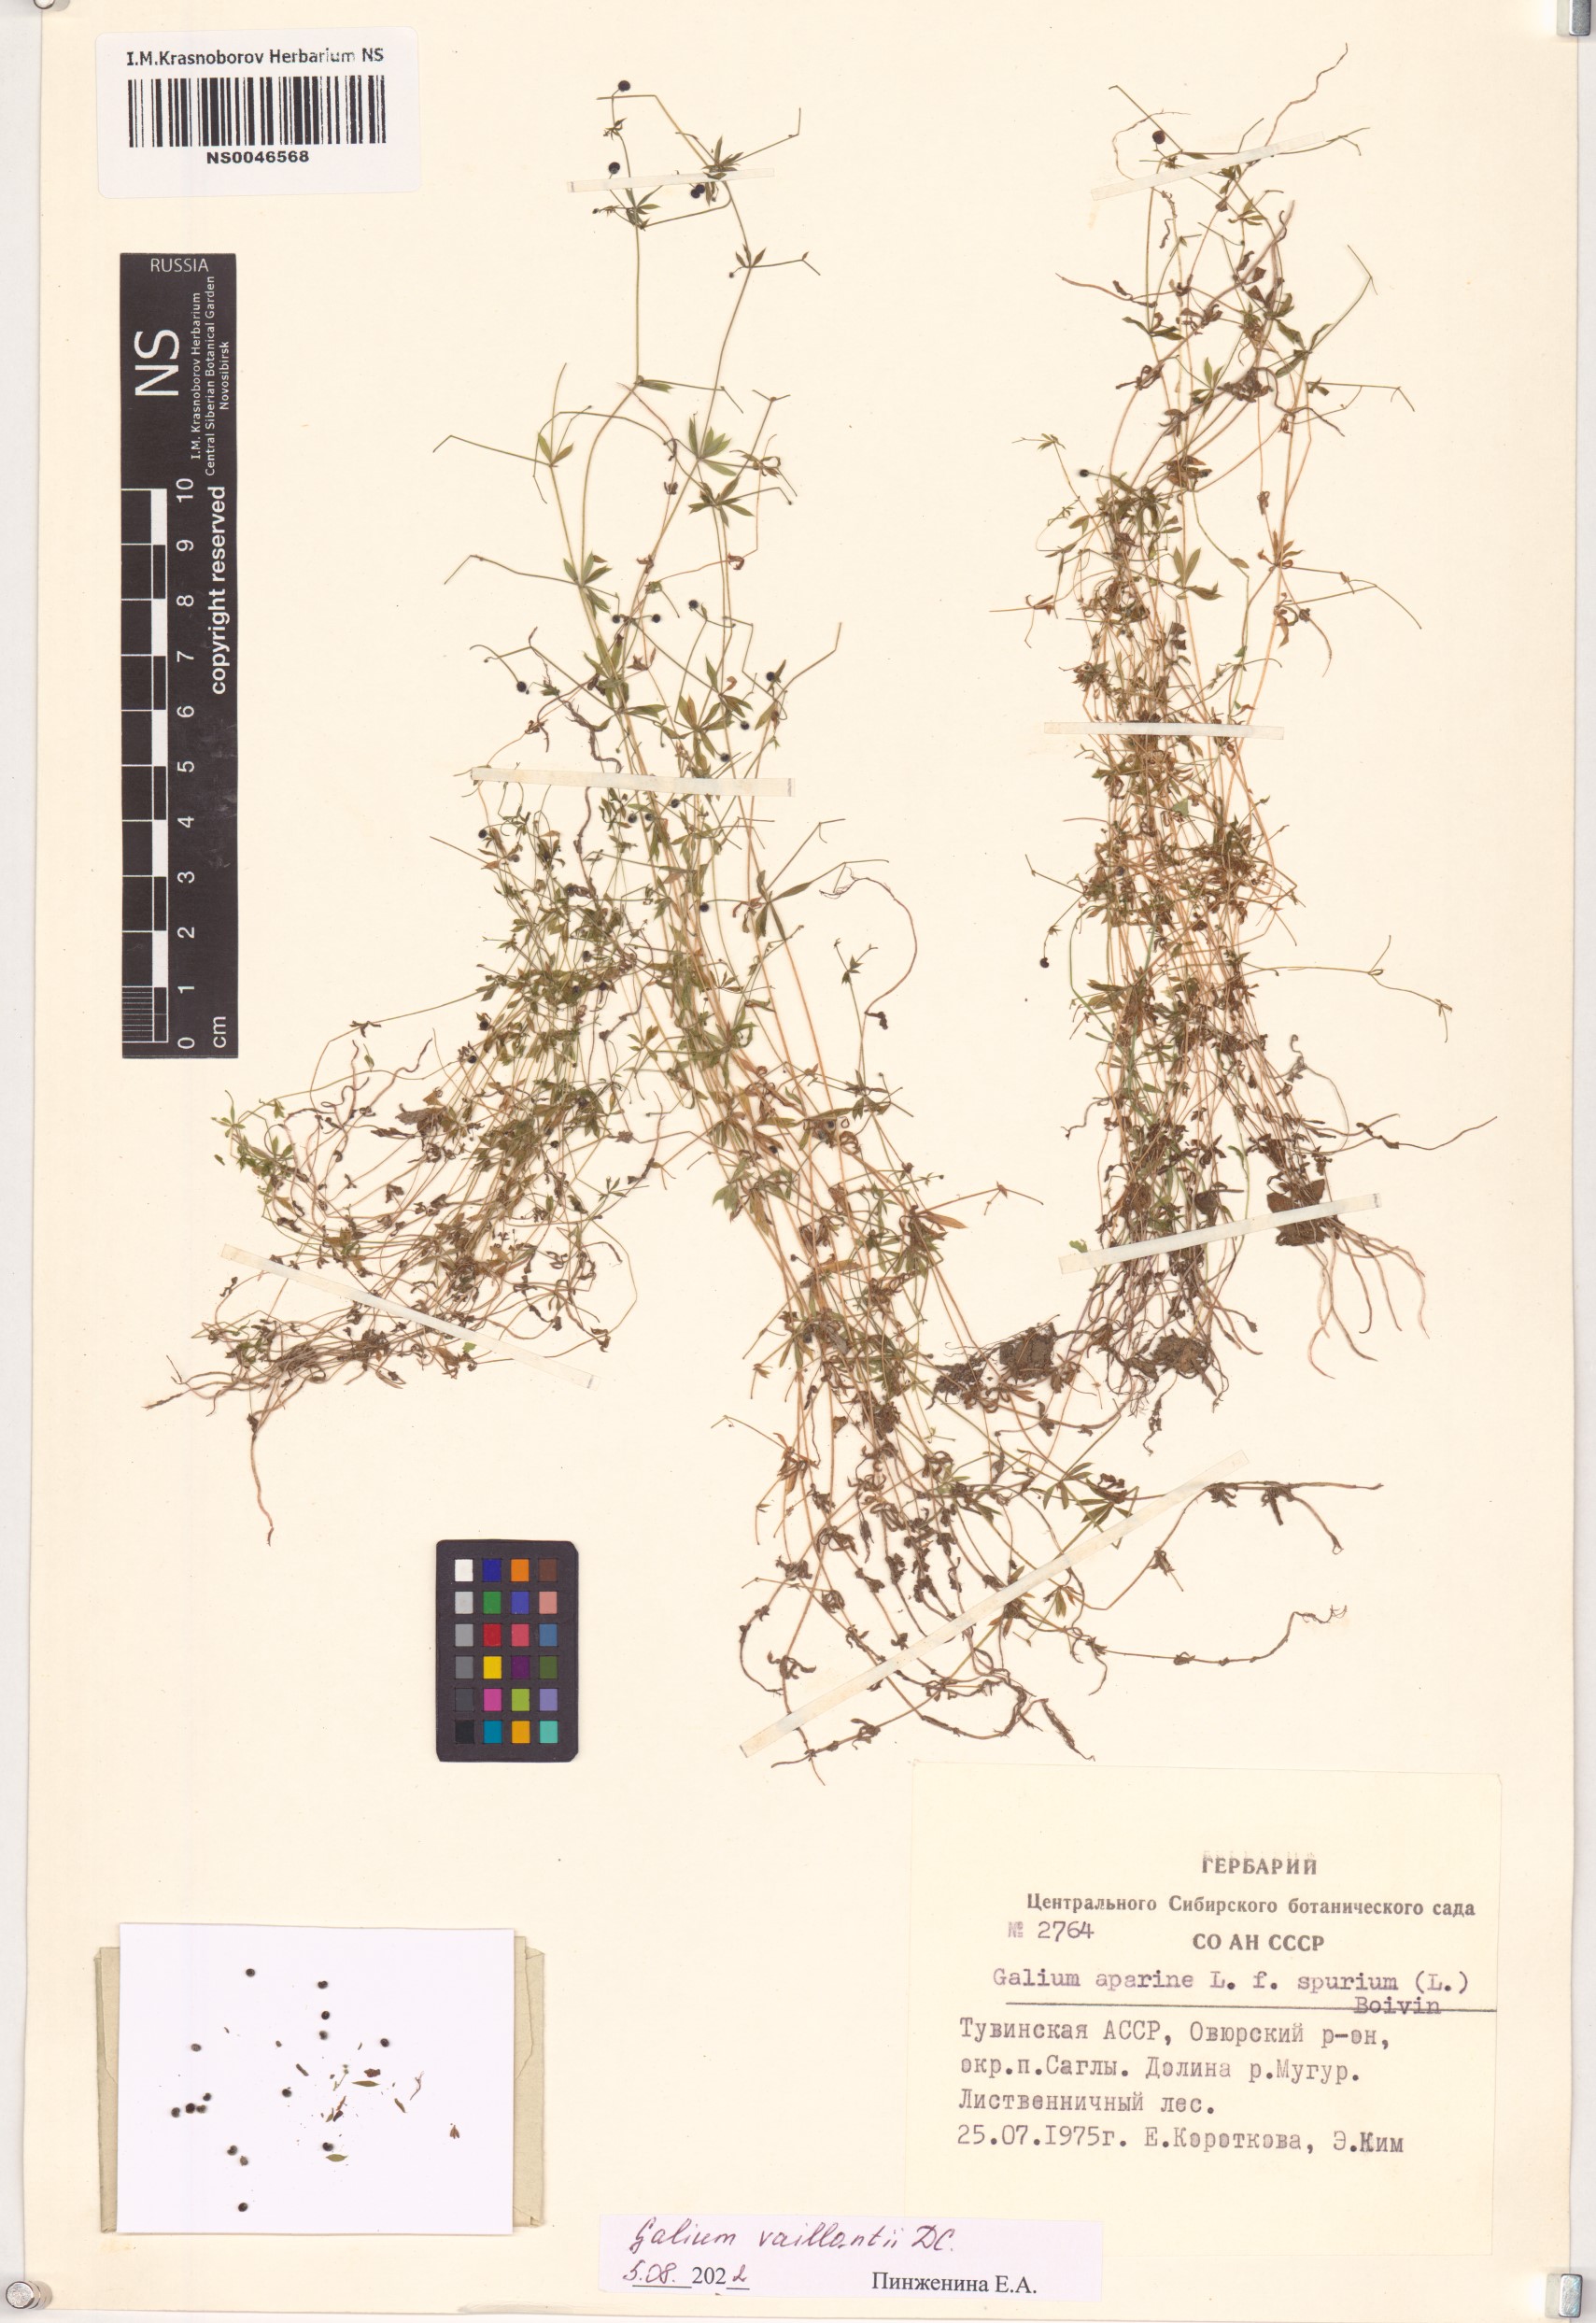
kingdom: Plantae
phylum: Tracheophyta
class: Magnoliopsida
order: Gentianales
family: Rubiaceae
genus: Galium
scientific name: Galium spurium
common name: False cleavers
